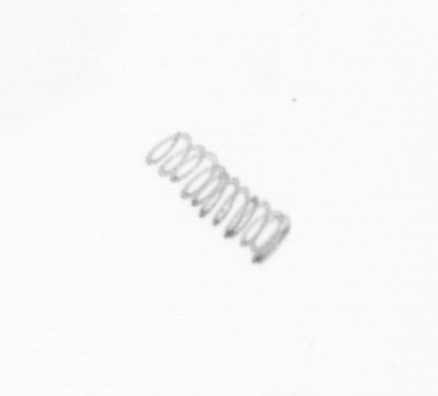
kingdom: Chromista
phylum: Ochrophyta
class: Bacillariophyceae
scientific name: Bacillariophyceae
